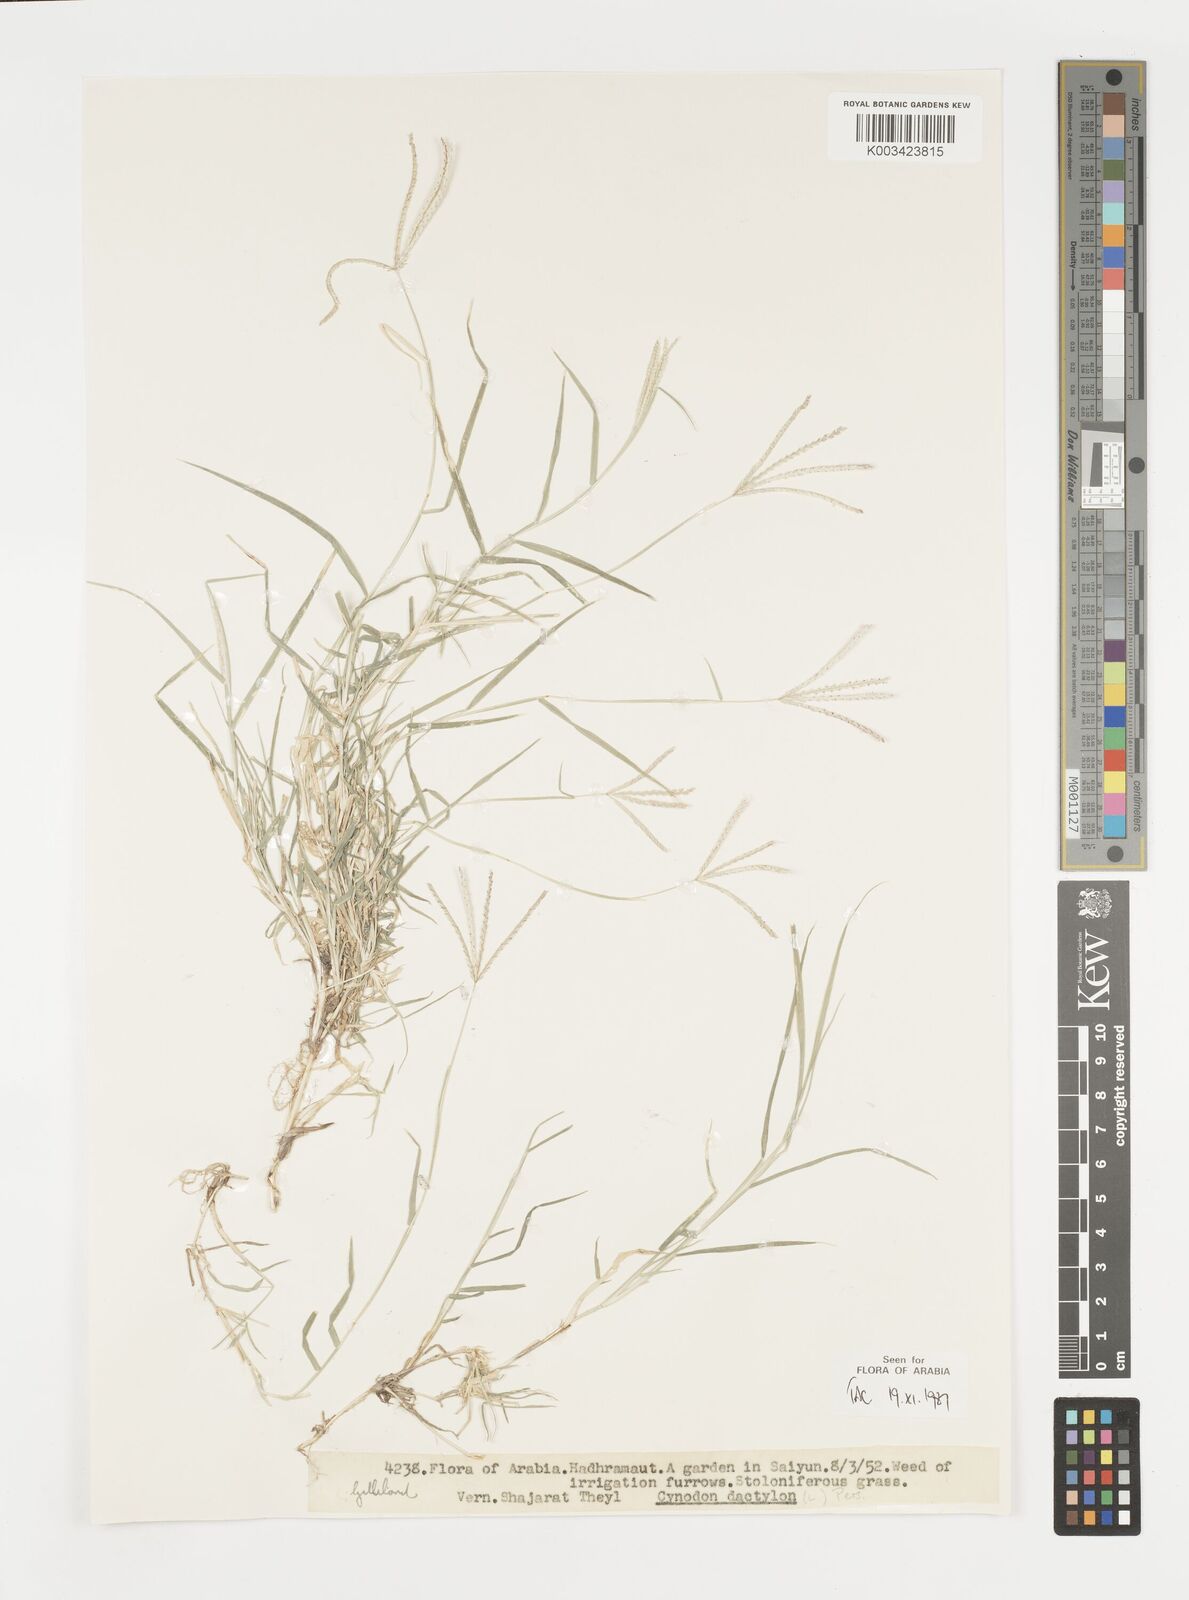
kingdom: Plantae
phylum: Tracheophyta
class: Liliopsida
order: Poales
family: Poaceae
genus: Cynodon
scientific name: Cynodon dactylon
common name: Bermuda grass
